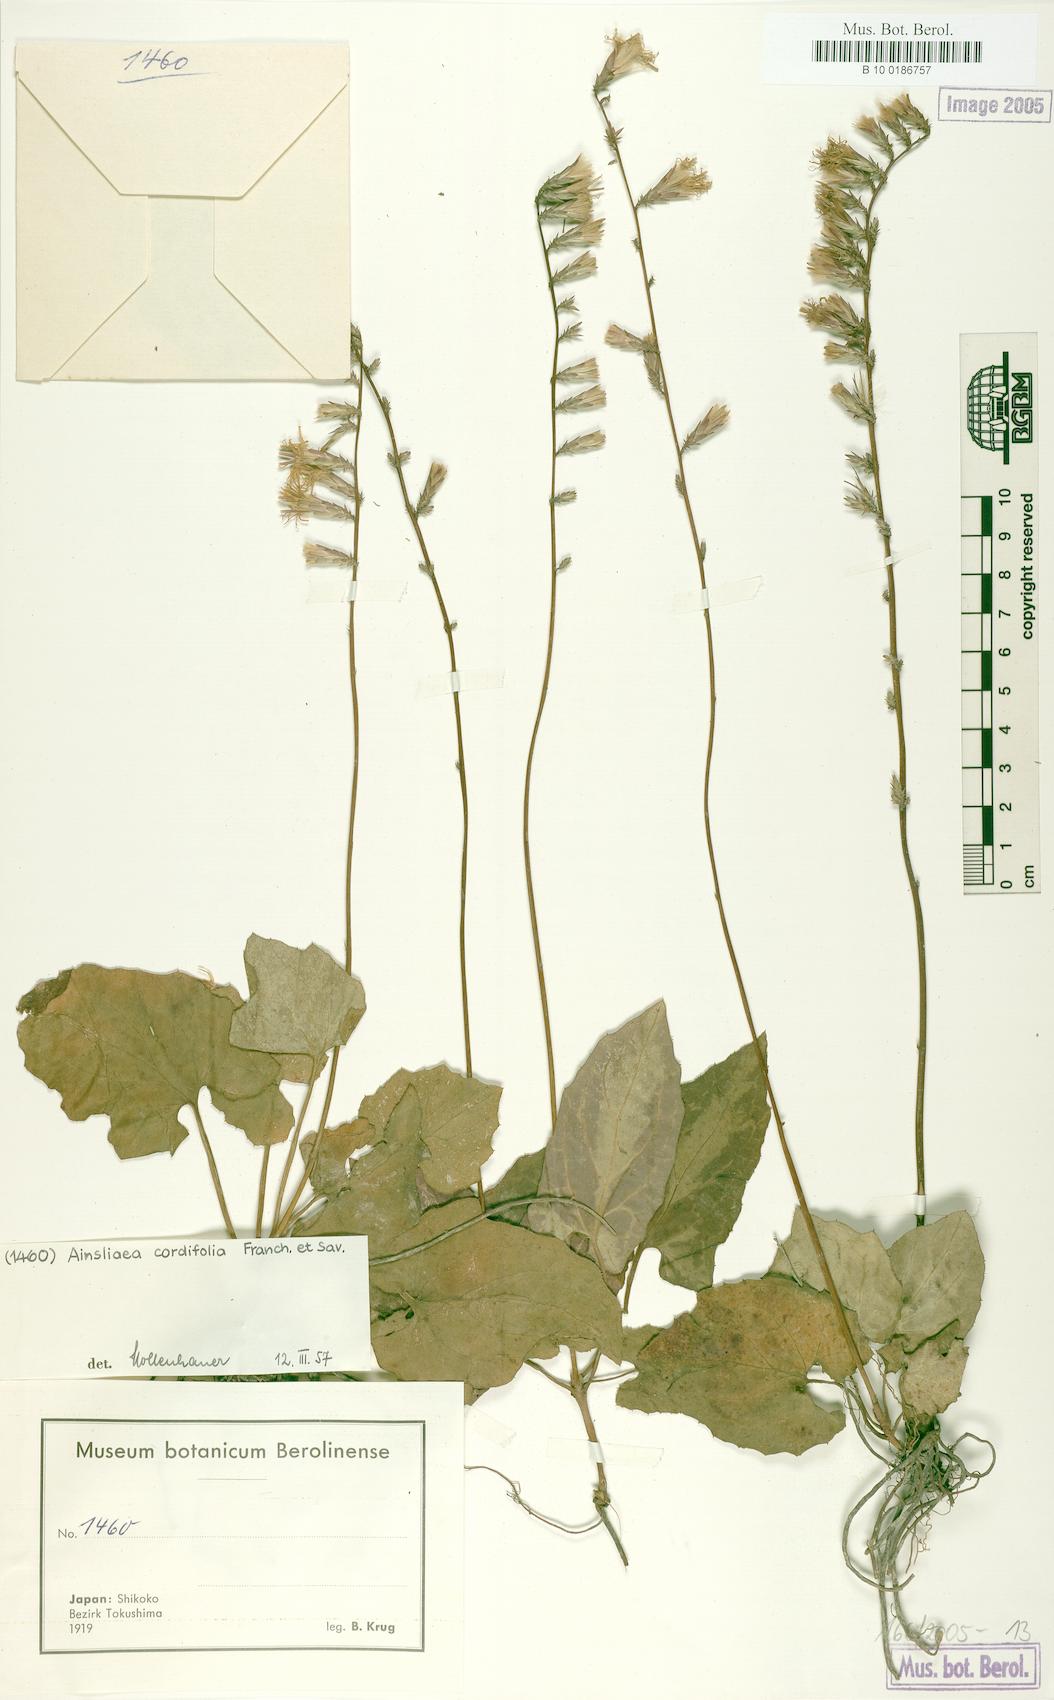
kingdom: Plantae
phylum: Tracheophyta
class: Magnoliopsida
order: Asterales
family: Asteraceae
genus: Ainsliaea
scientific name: Ainsliaea cordifolia
